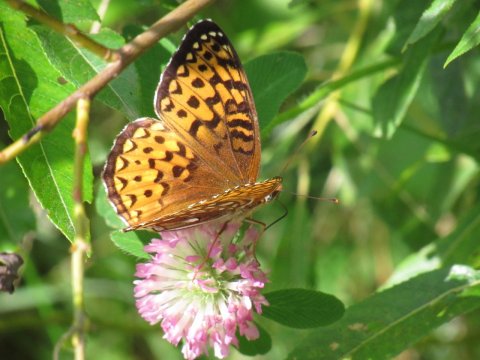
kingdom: Animalia
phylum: Arthropoda
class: Insecta
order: Lepidoptera
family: Nymphalidae
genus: Speyeria
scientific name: Speyeria atlantis
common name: Atlantis Fritillary
